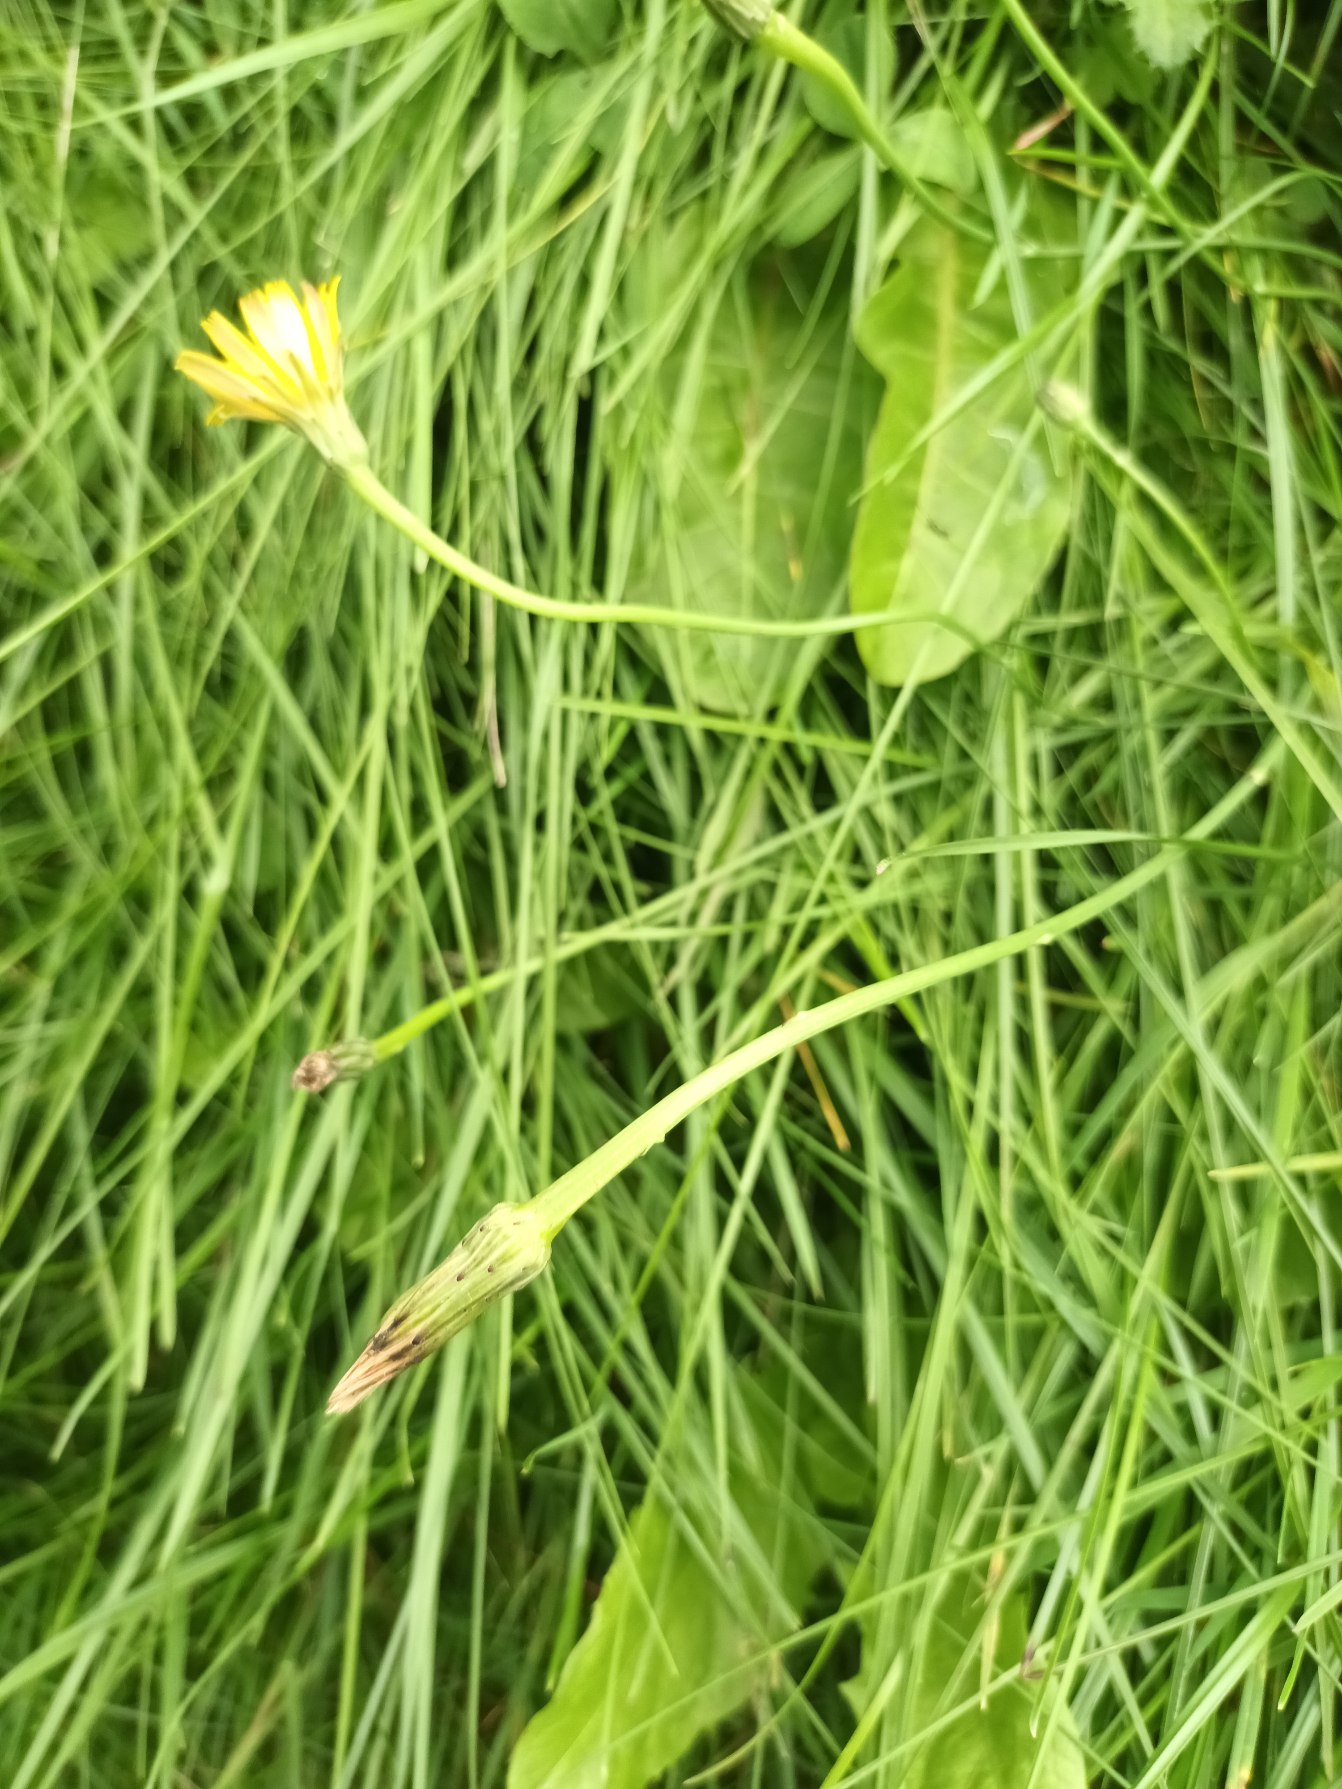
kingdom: Plantae
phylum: Tracheophyta
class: Magnoliopsida
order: Asterales
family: Asteraceae
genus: Hypochaeris
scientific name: Hypochaeris radicata
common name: Almindelig kongepen
